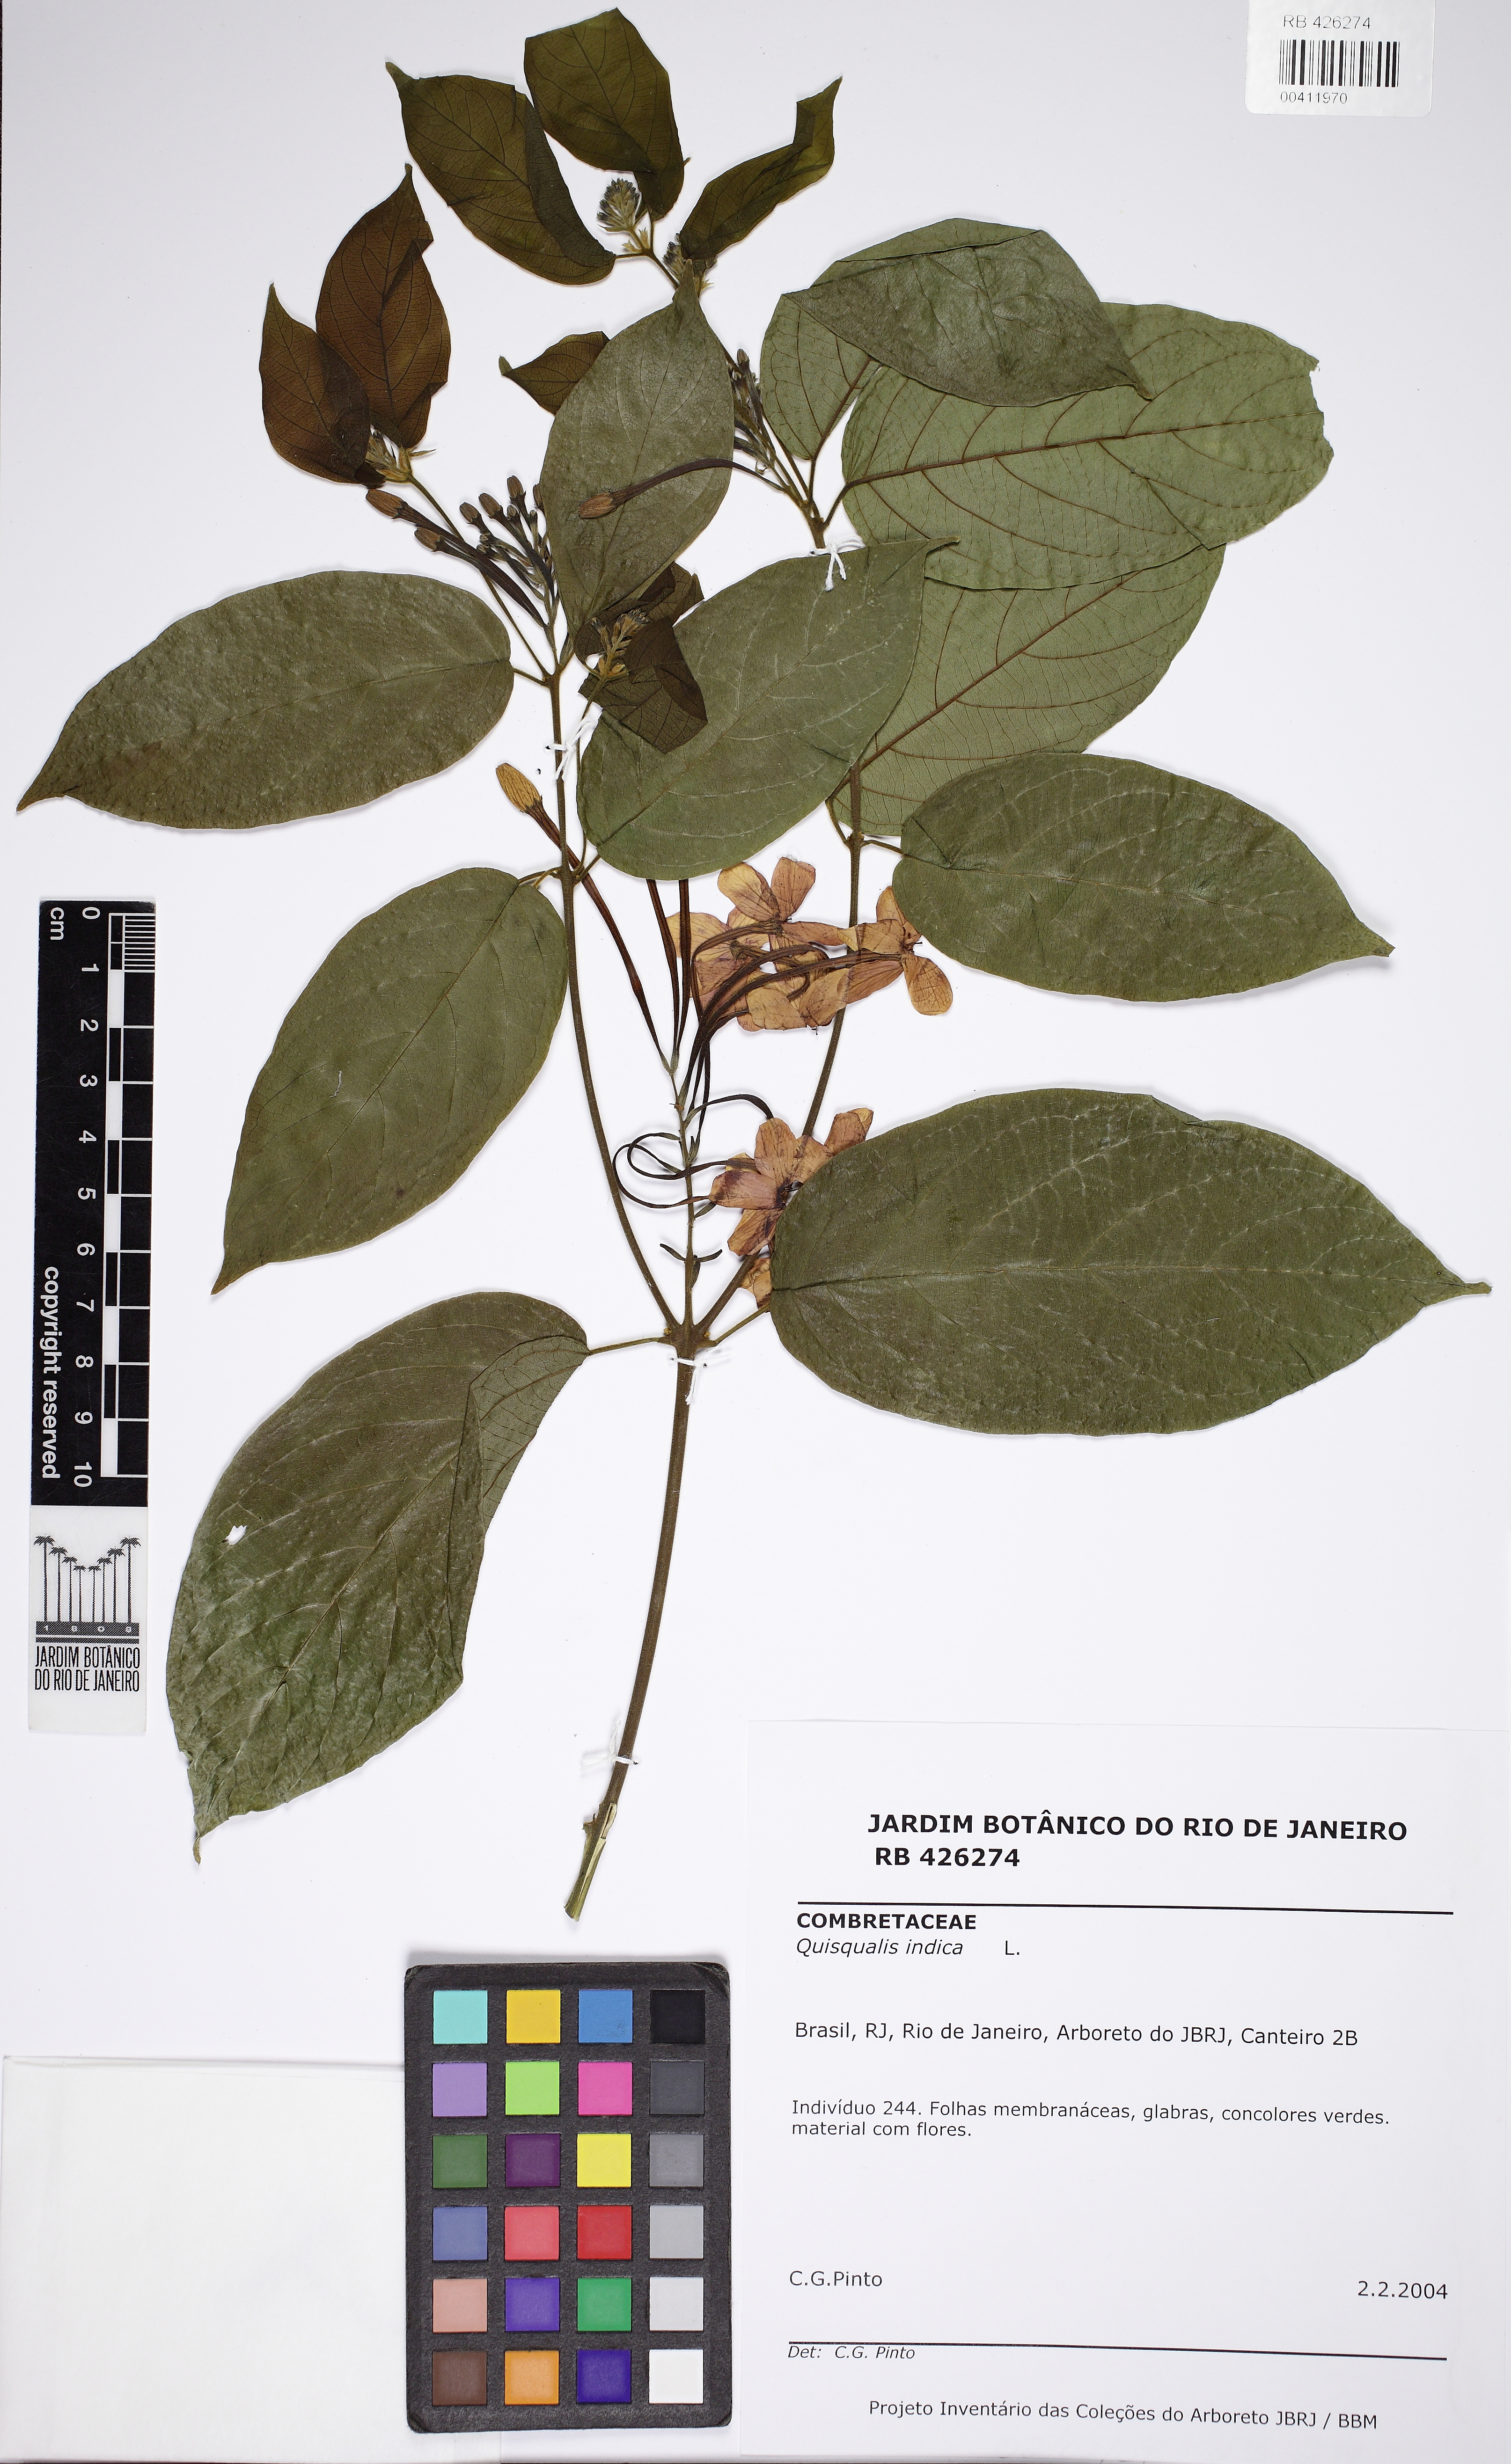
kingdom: Plantae
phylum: Tracheophyta
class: Magnoliopsida
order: Myrtales
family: Combretaceae
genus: Combretum
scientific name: Combretum indicum
